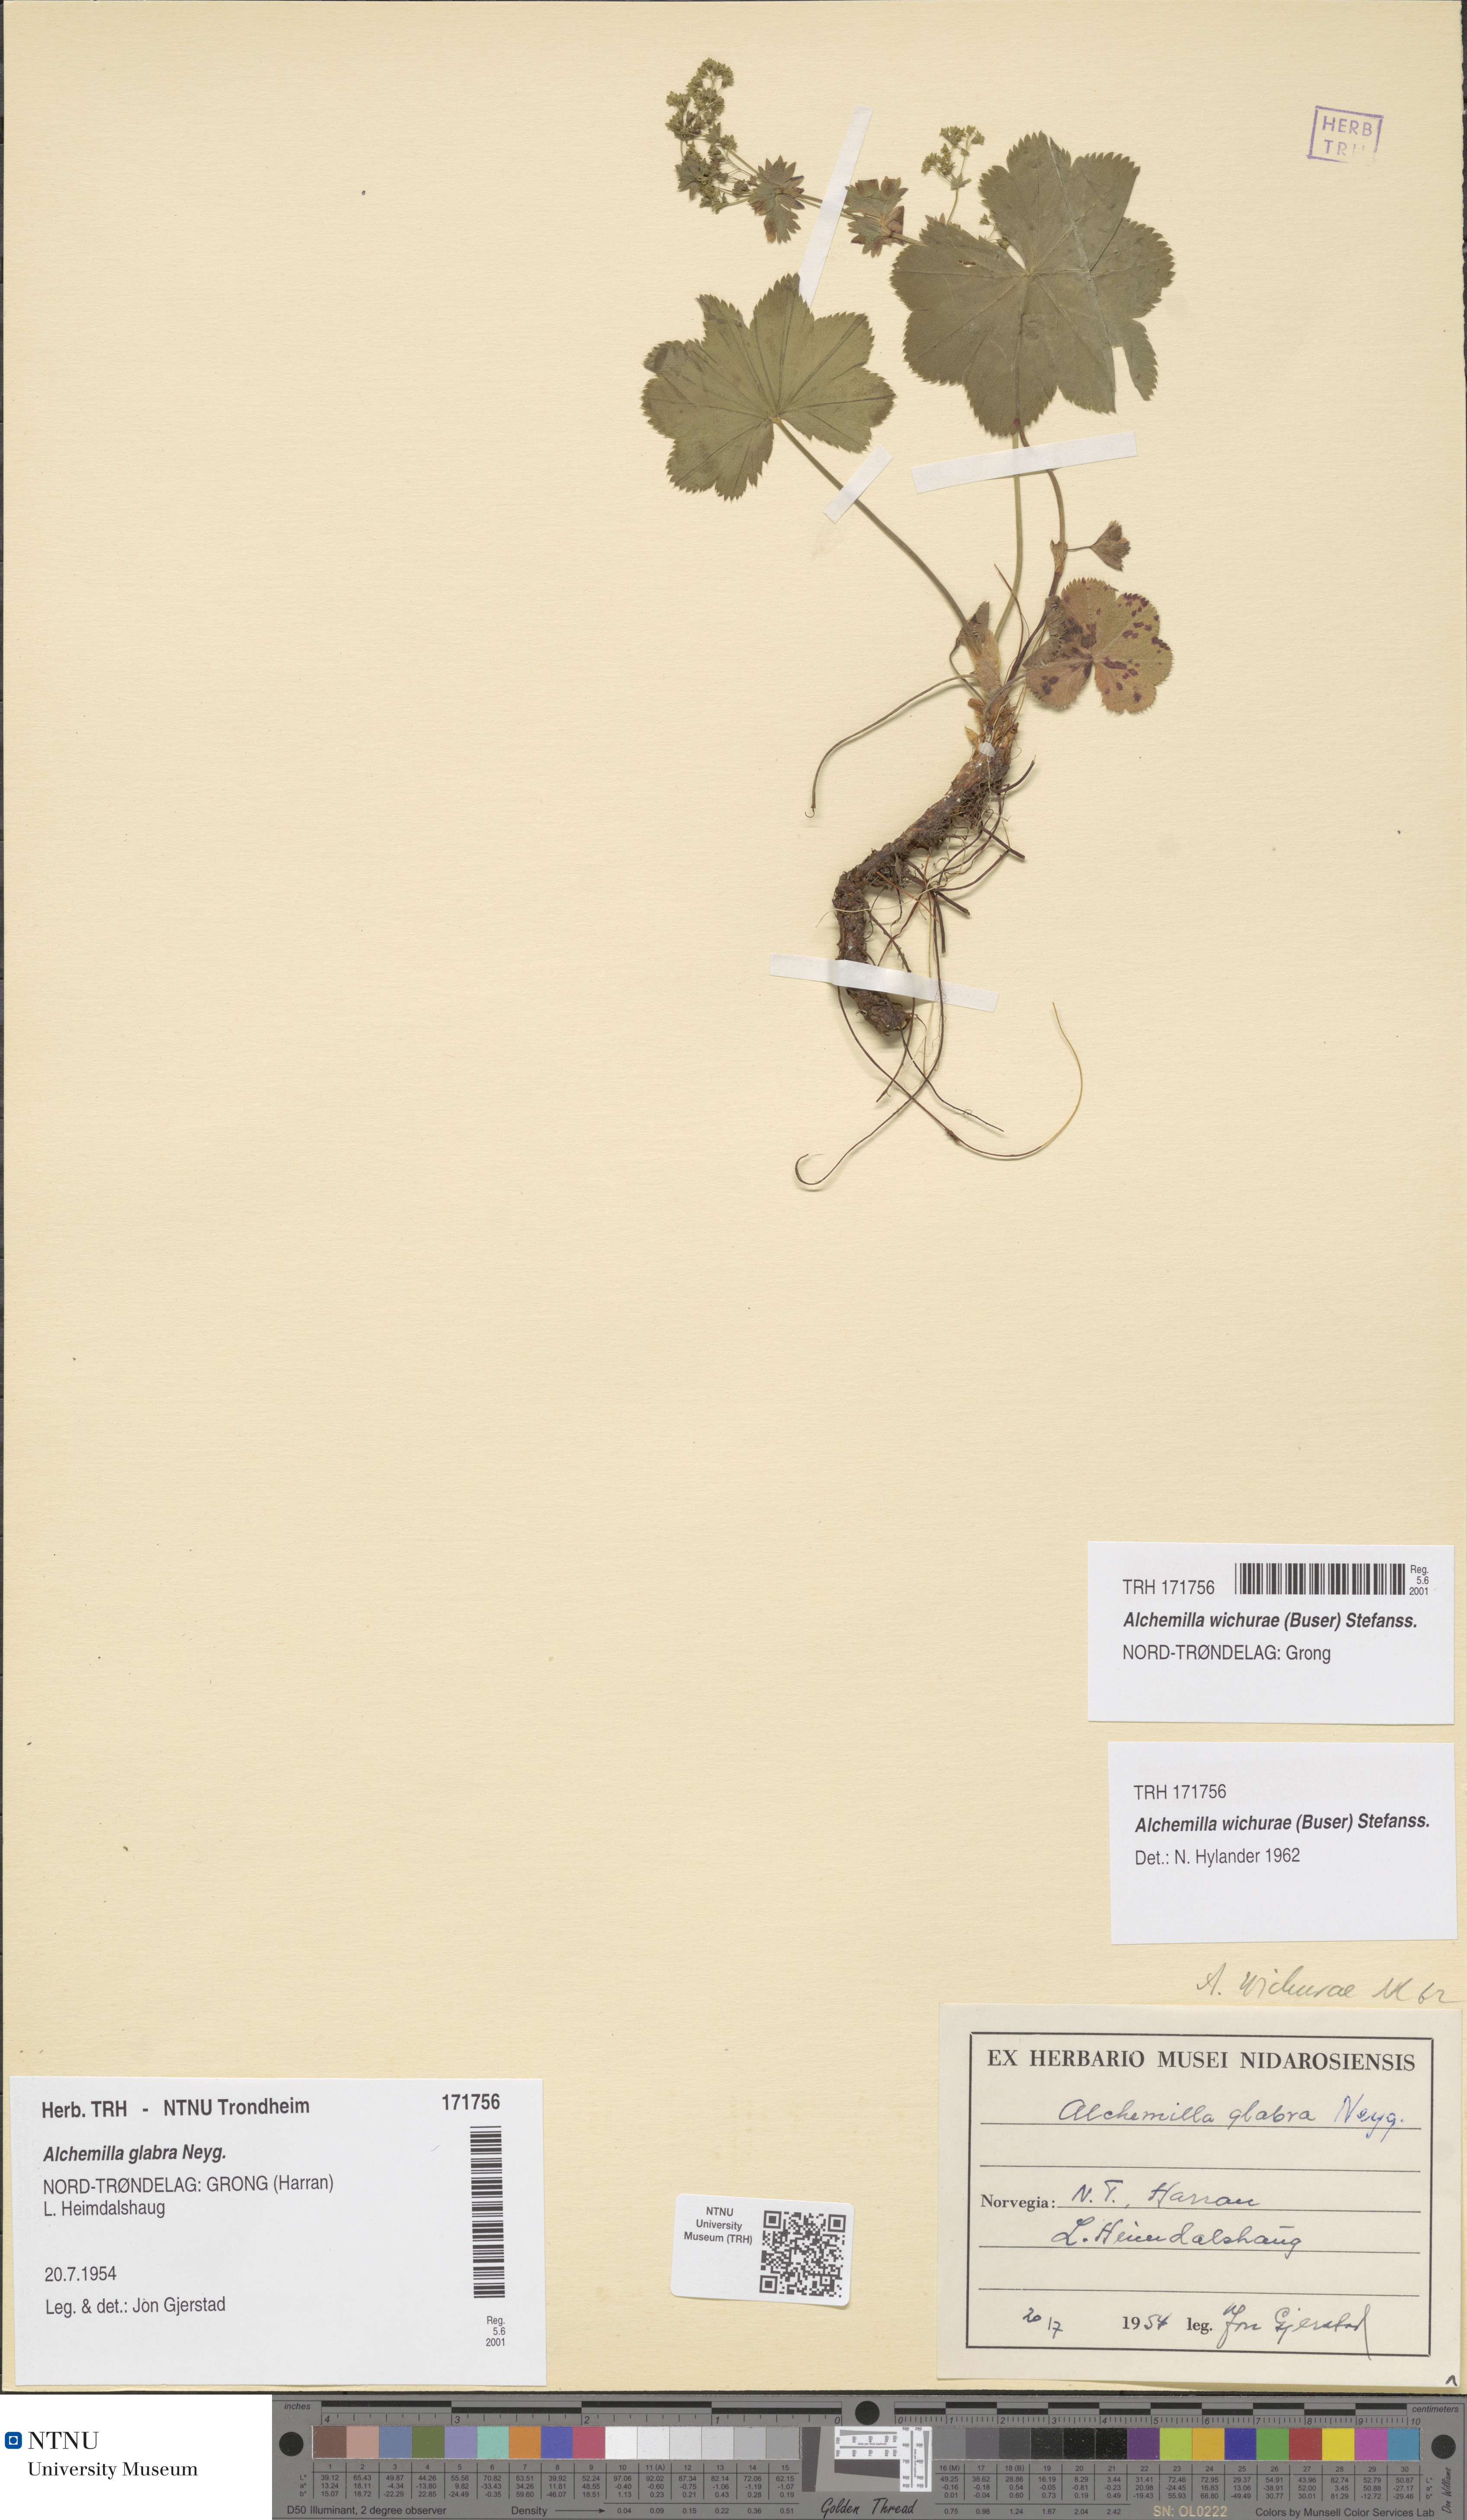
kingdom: Plantae
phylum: Tracheophyta
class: Magnoliopsida
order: Rosales
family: Rosaceae
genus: Alchemilla
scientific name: Alchemilla wichurae
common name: Rock lady's mantle
